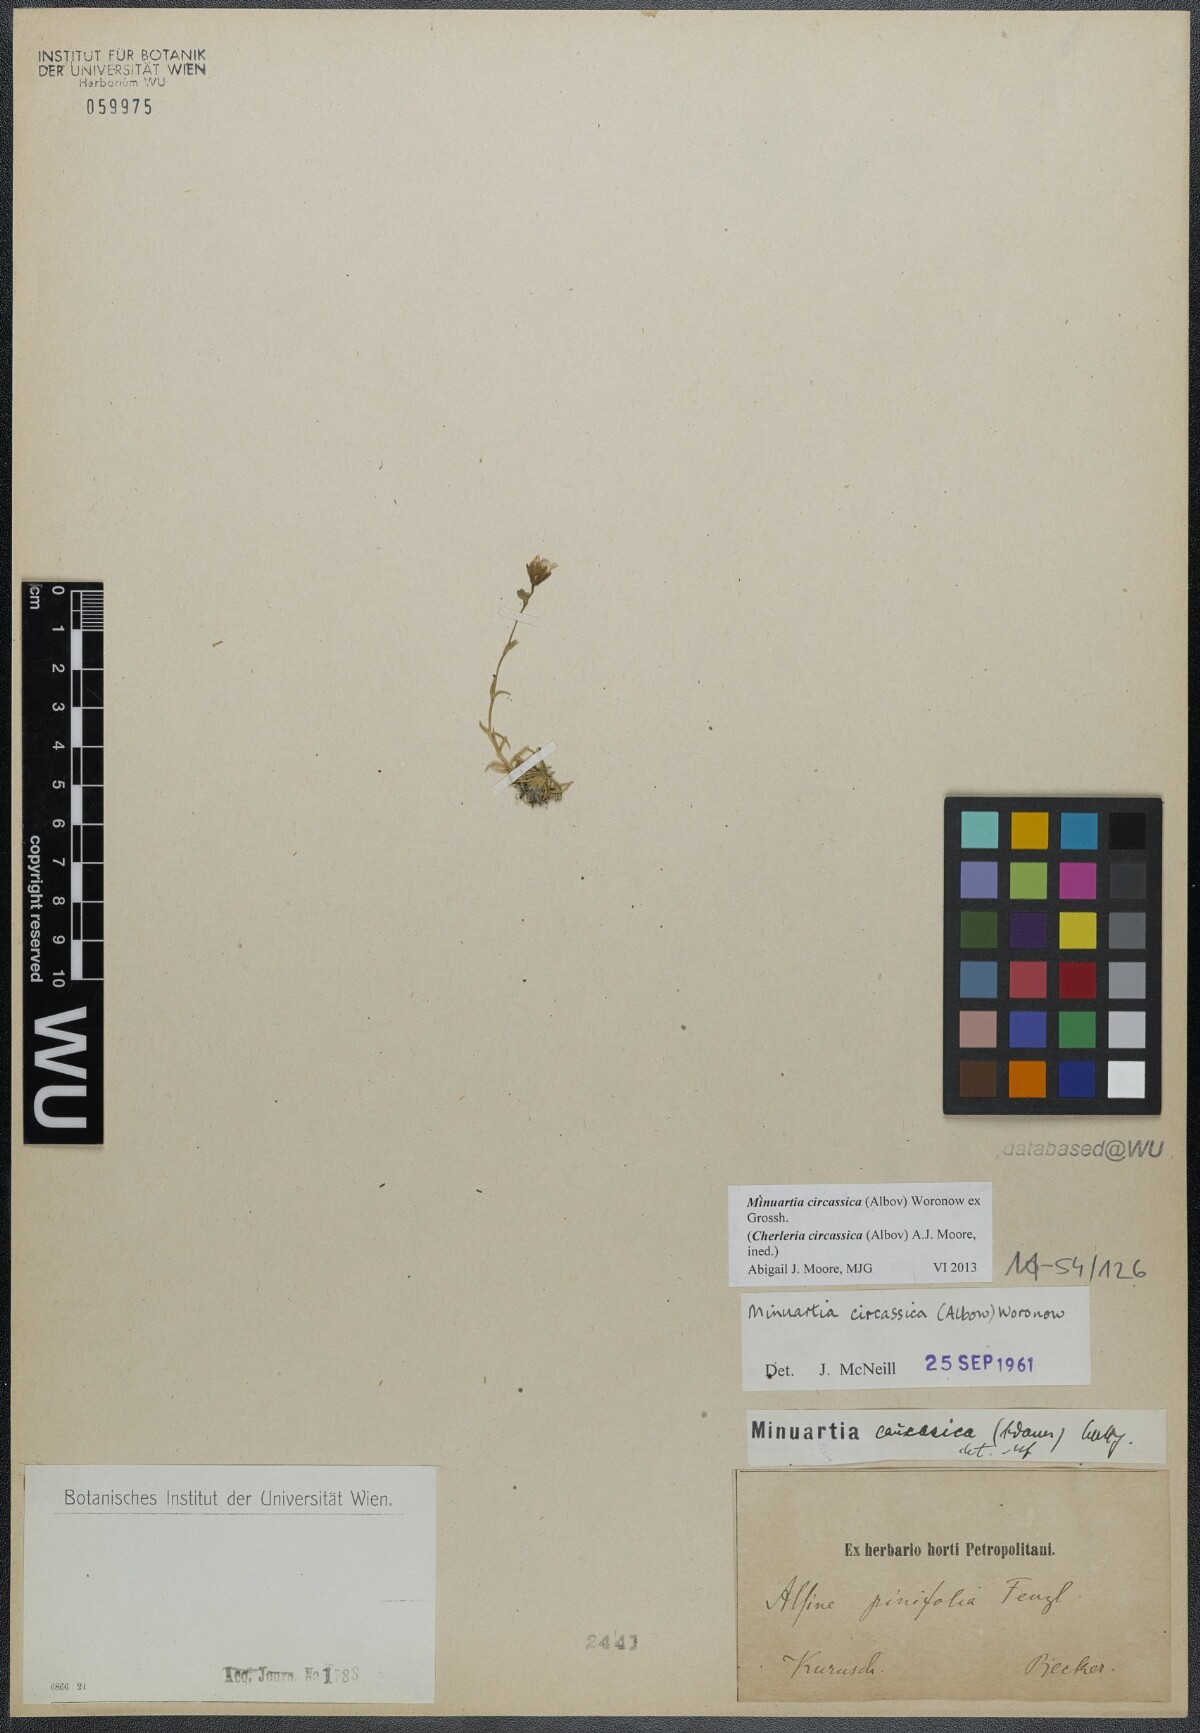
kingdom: Plantae
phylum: Tracheophyta
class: Magnoliopsida
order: Caryophyllales
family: Caryophyllaceae
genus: Cherleria
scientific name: Cherleria circassica
